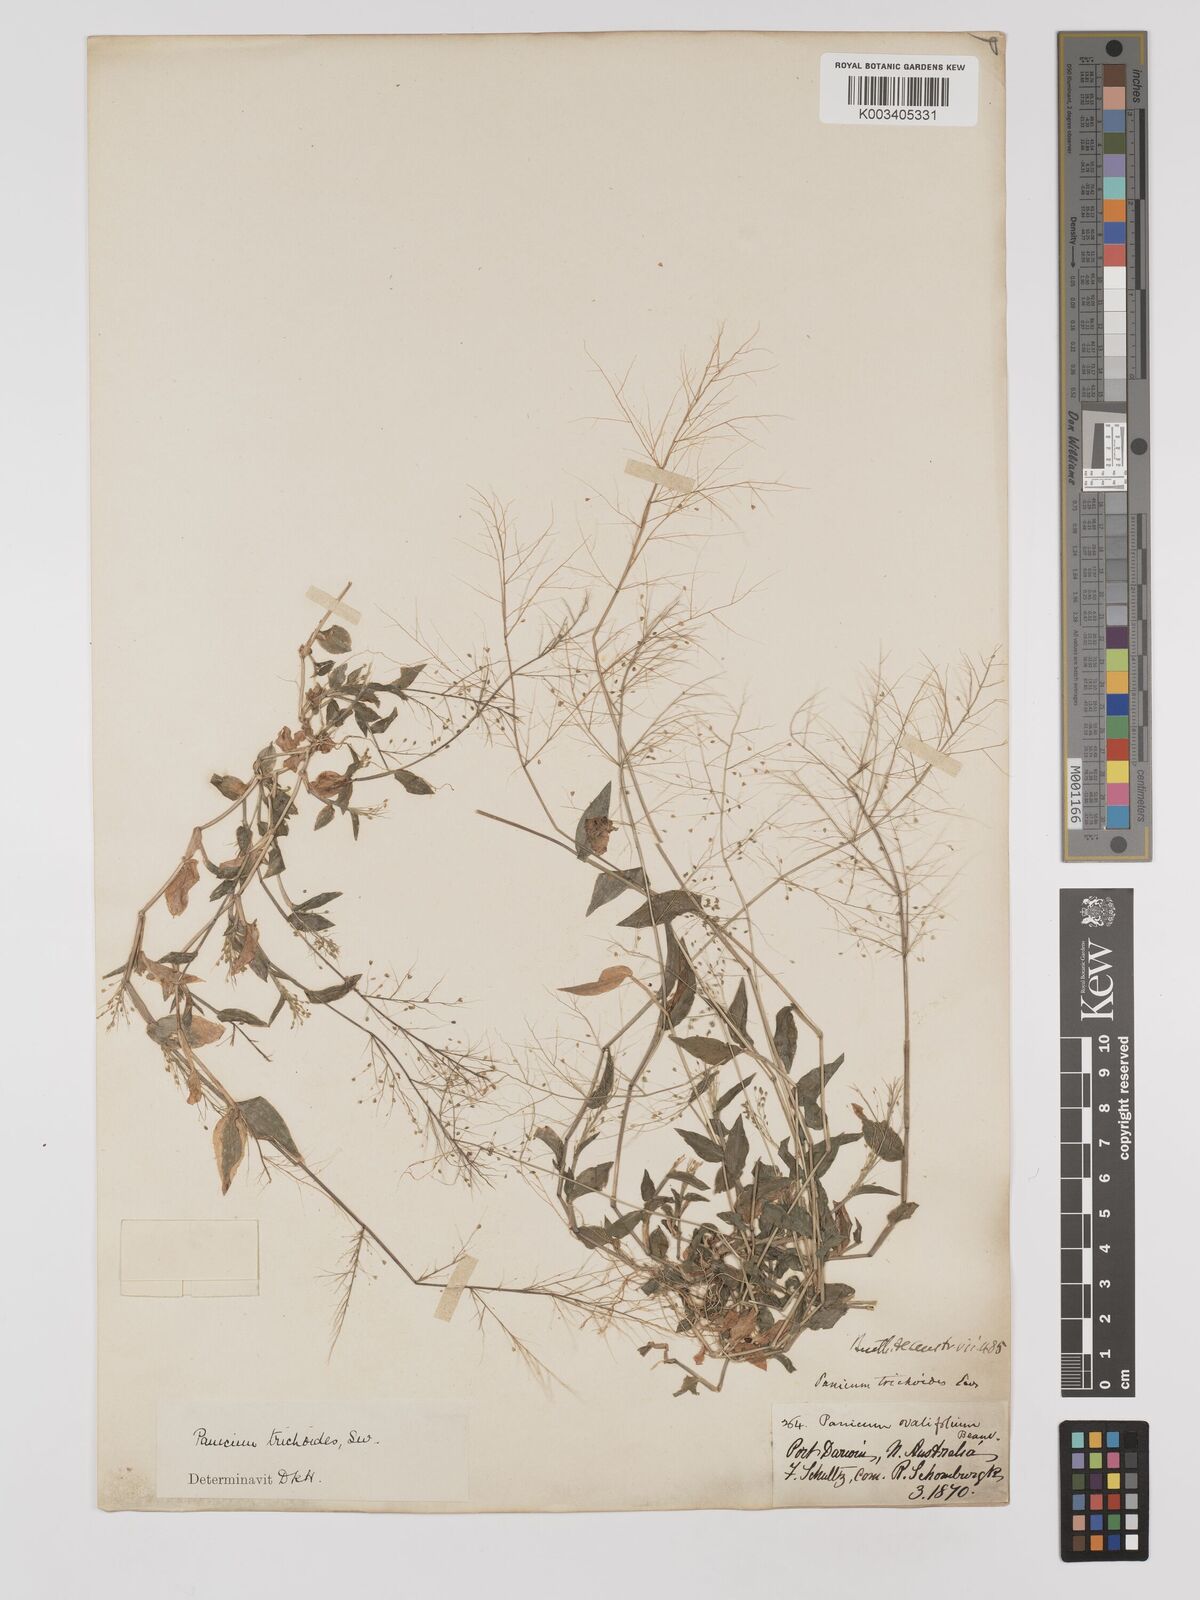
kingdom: Plantae
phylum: Tracheophyta
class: Liliopsida
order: Poales
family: Poaceae
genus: Panicum
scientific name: Panicum trichoides
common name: Tickle grass
